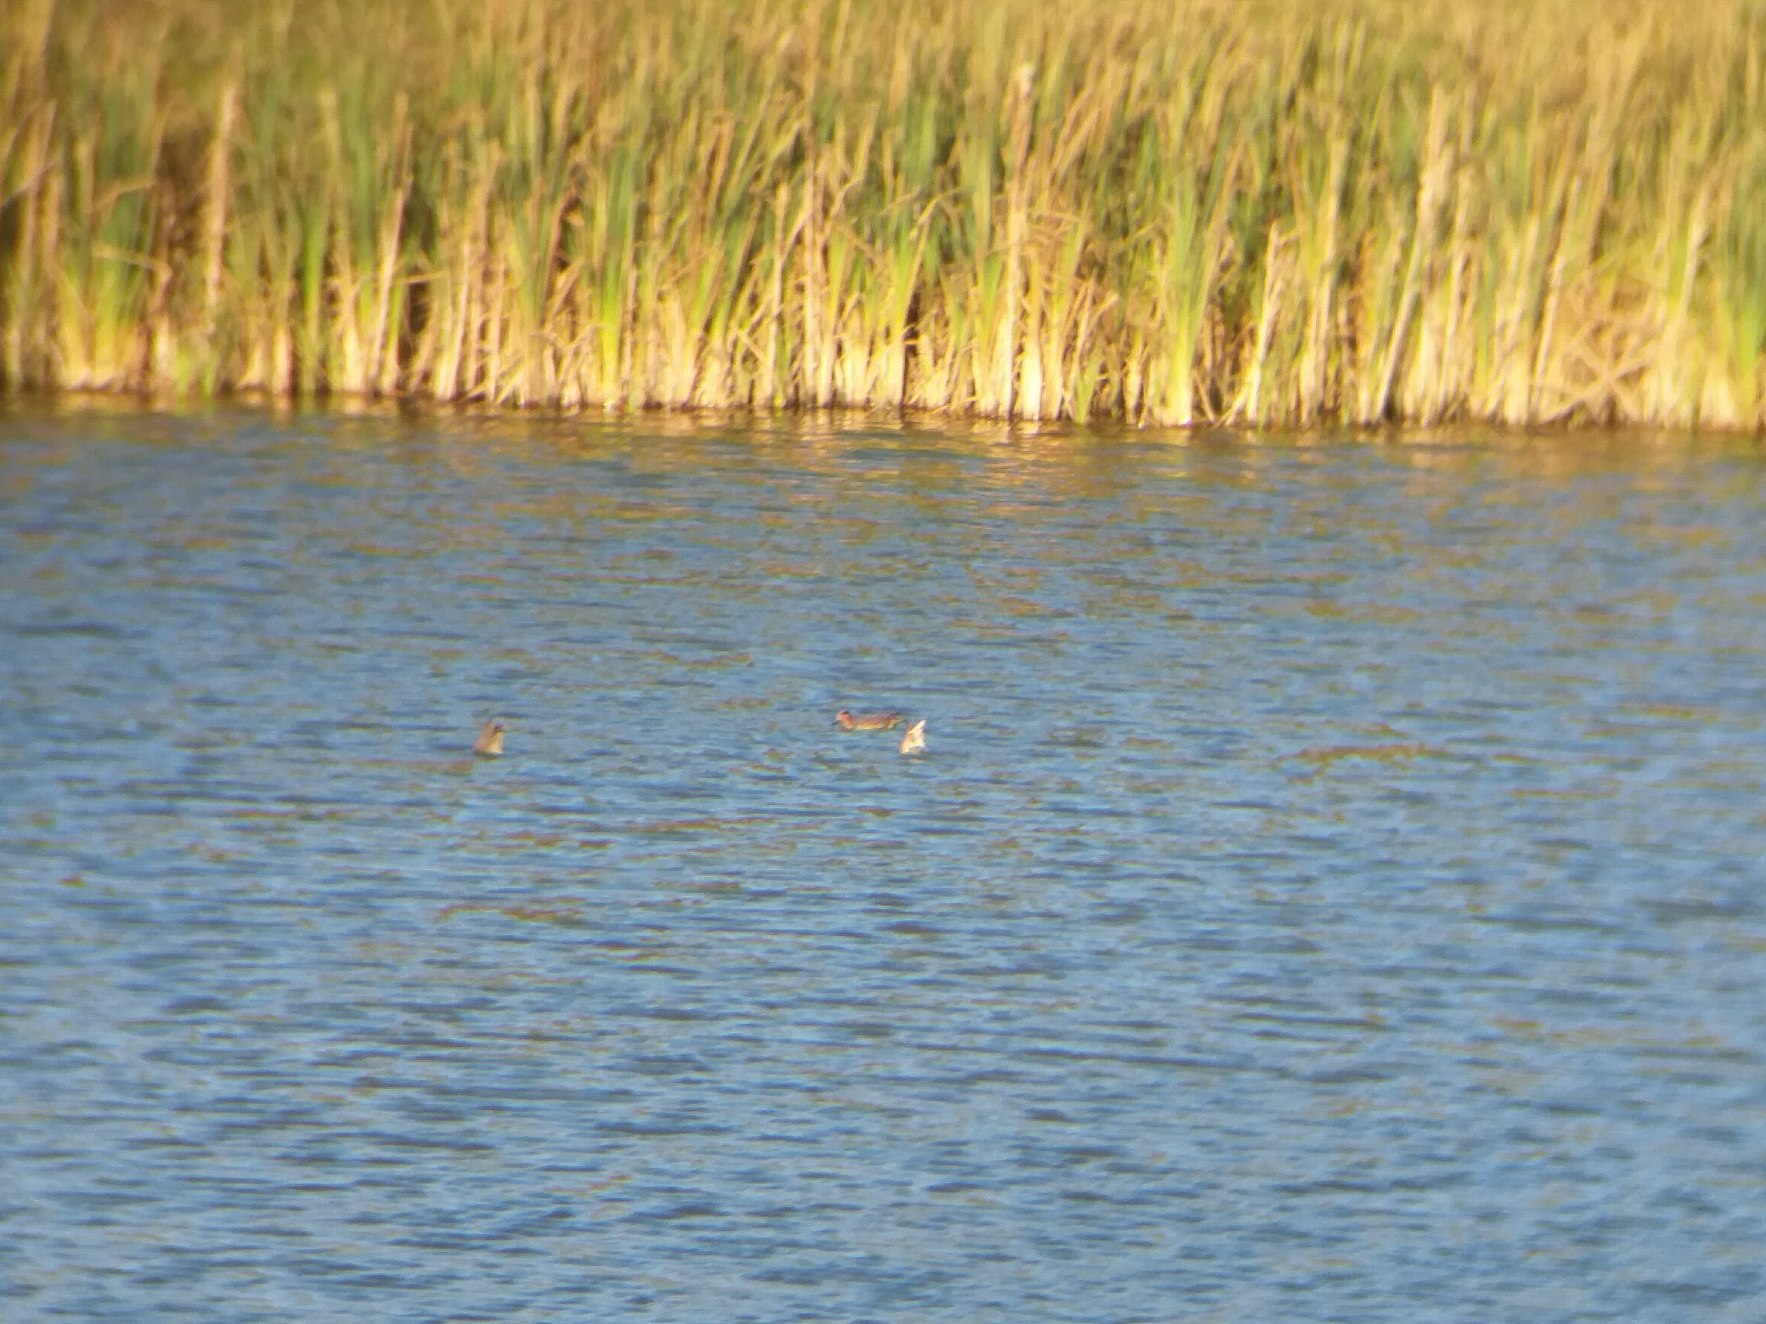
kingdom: Animalia
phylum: Chordata
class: Aves
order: Anseriformes
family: Anatidae
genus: Anas
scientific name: Anas crecca
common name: Krikand
